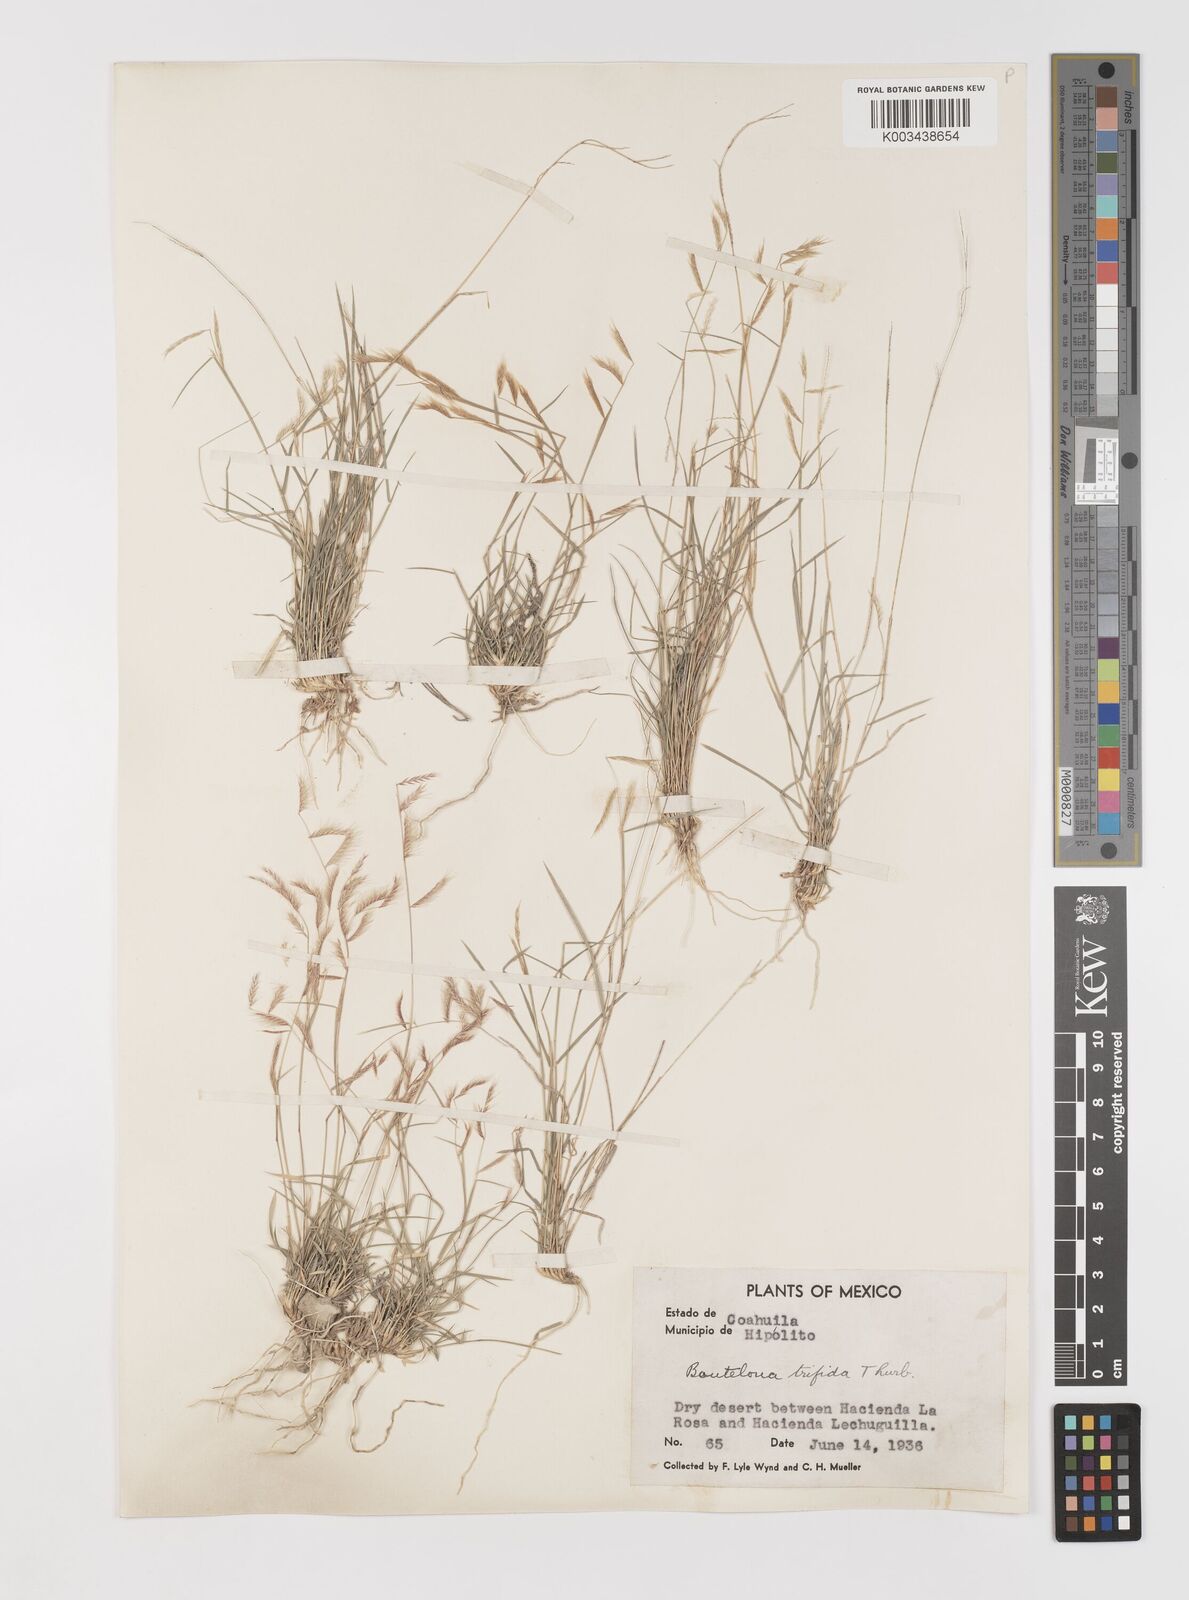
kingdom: Plantae
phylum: Tracheophyta
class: Liliopsida
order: Poales
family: Poaceae
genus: Bouteloua
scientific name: Bouteloua
